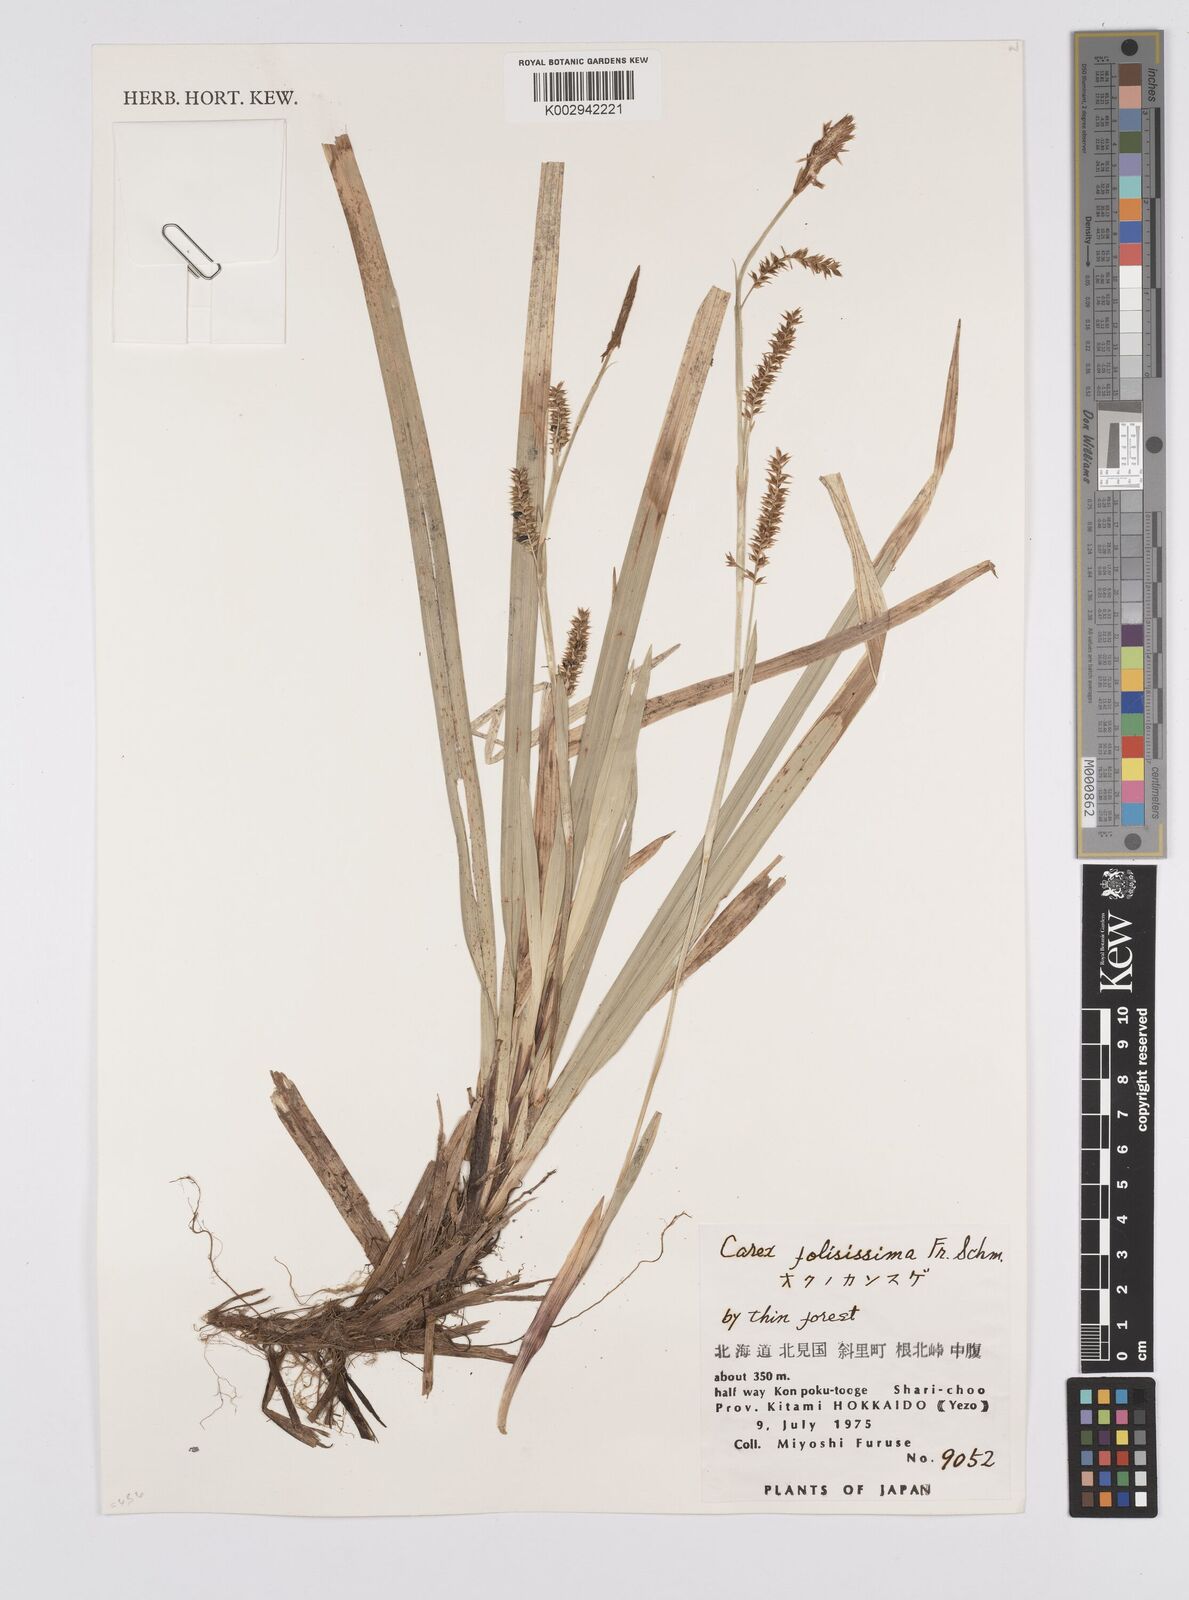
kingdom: Plantae
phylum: Tracheophyta
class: Liliopsida
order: Poales
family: Cyperaceae
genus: Carex
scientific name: Carex morrowii
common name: Japanese sedge
